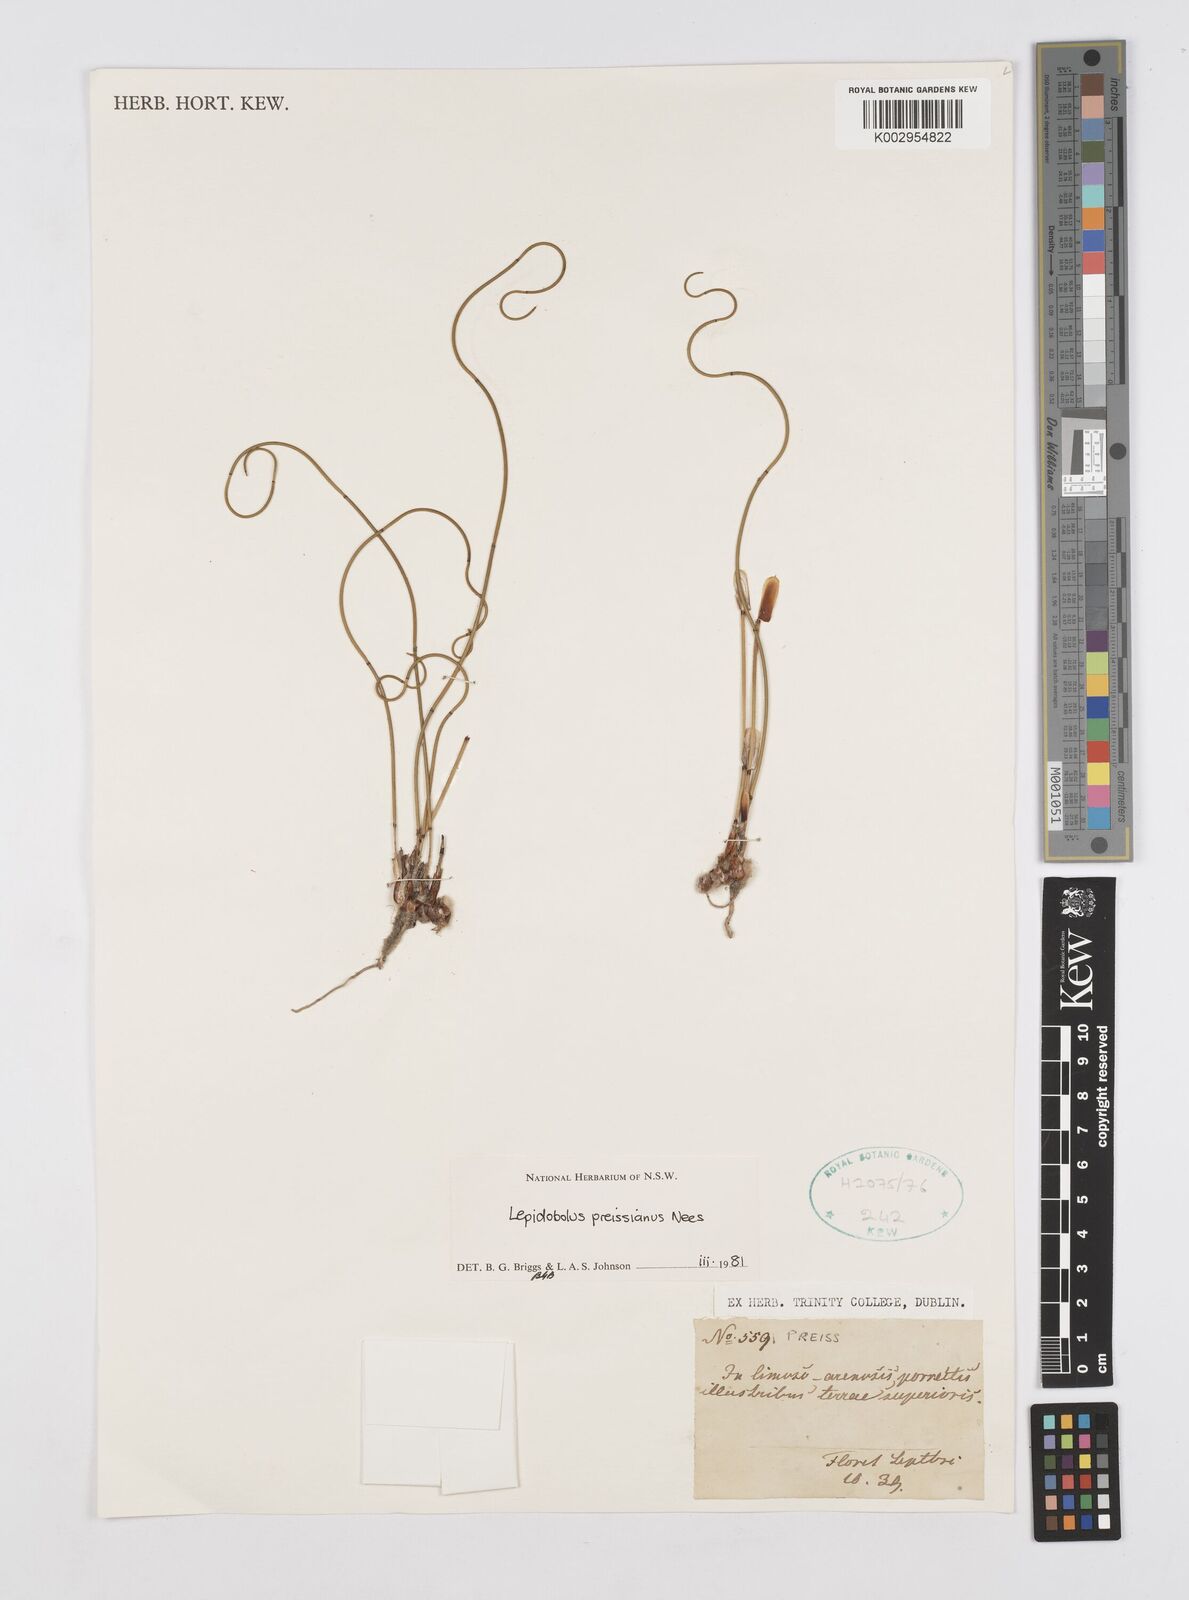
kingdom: Plantae
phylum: Tracheophyta
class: Liliopsida
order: Poales
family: Restionaceae
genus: Lepidobolus
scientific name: Lepidobolus preissianus
